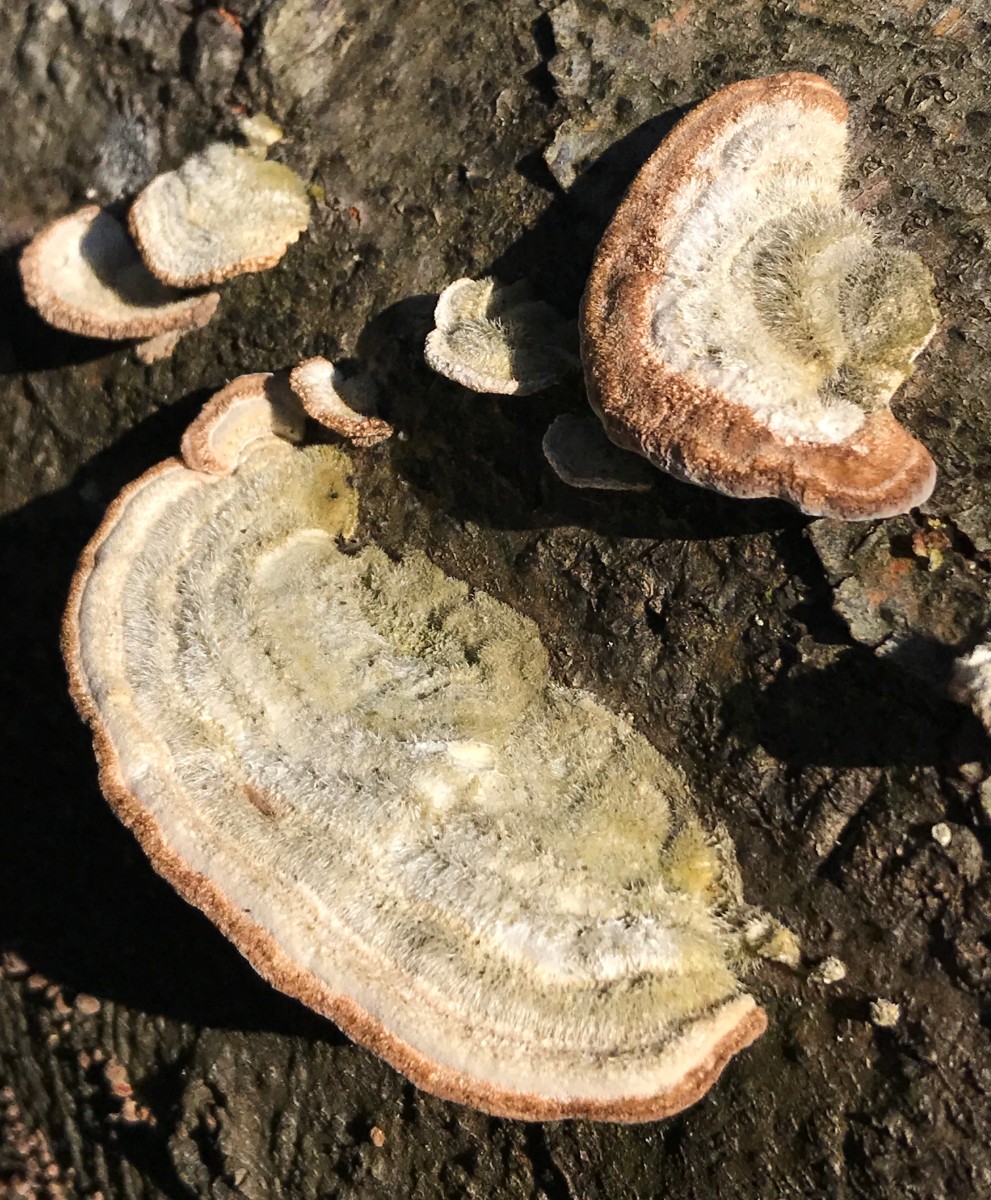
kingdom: Fungi
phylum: Basidiomycota
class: Agaricomycetes
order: Polyporales
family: Polyporaceae
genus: Trametes
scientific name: Trametes hirsuta
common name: håret læderporesvamp
